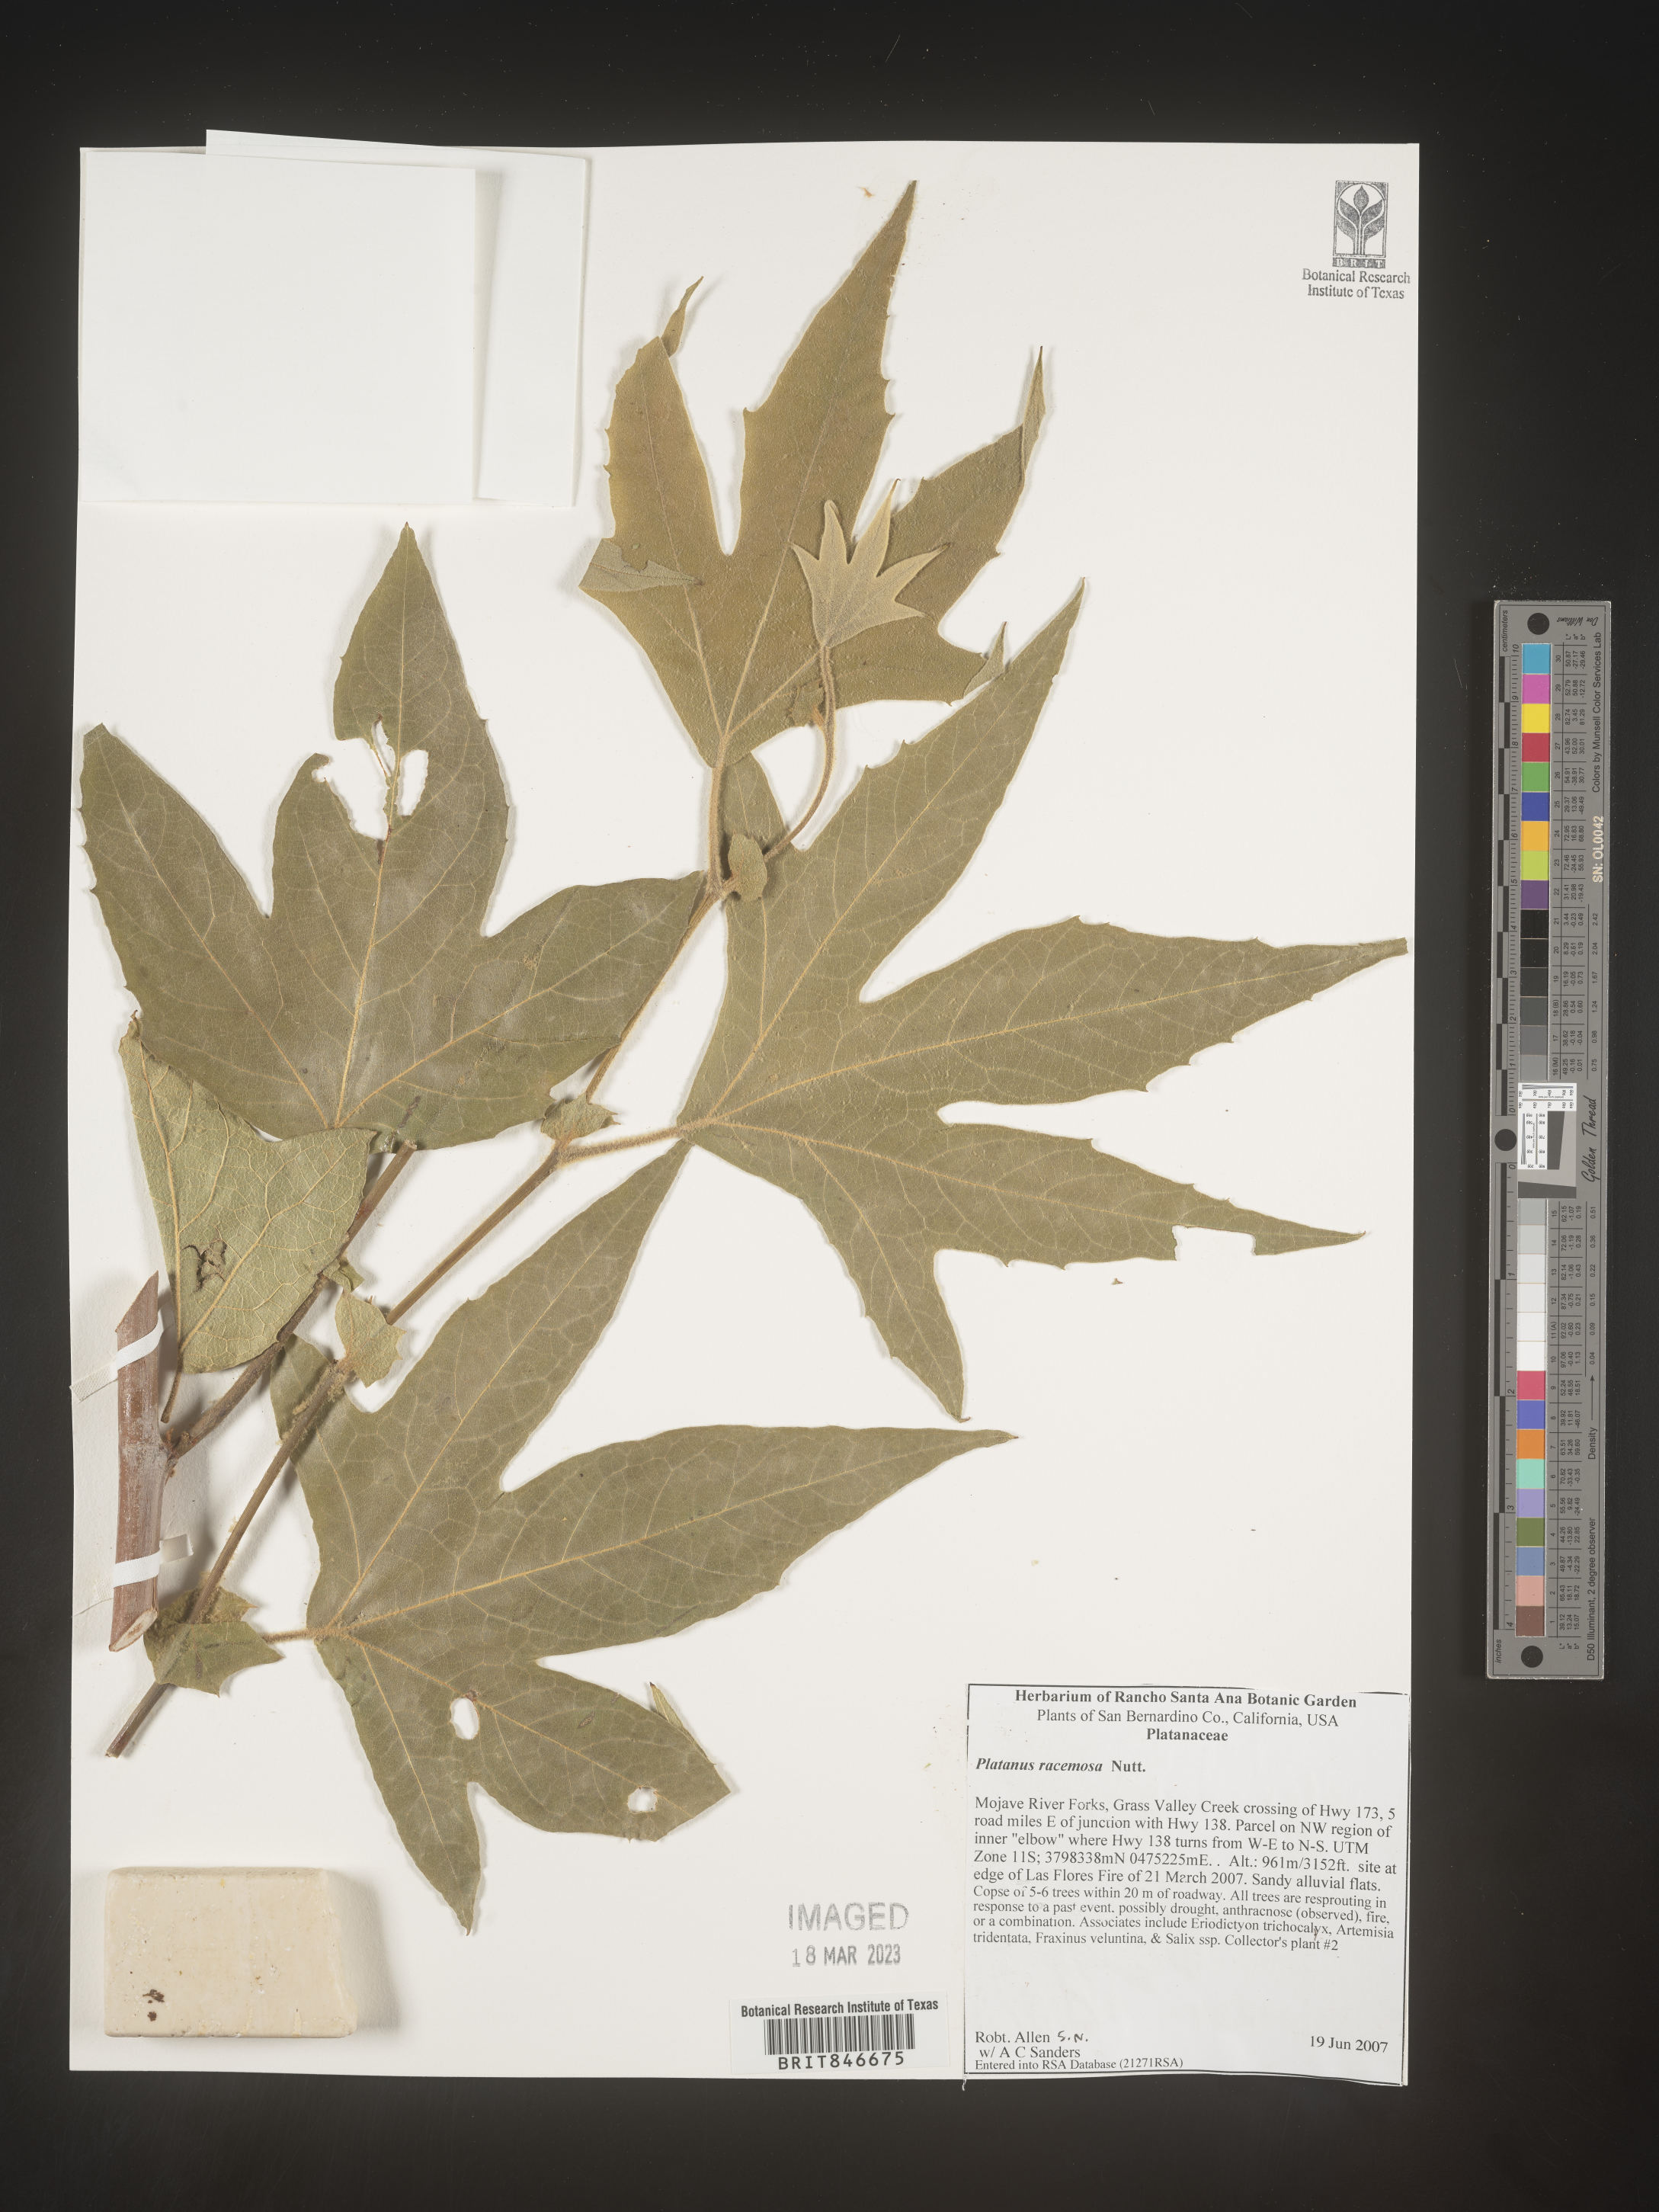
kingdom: Plantae
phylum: Tracheophyta
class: Magnoliopsida
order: Proteales
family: Platanaceae
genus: Platanus
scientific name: Platanus
